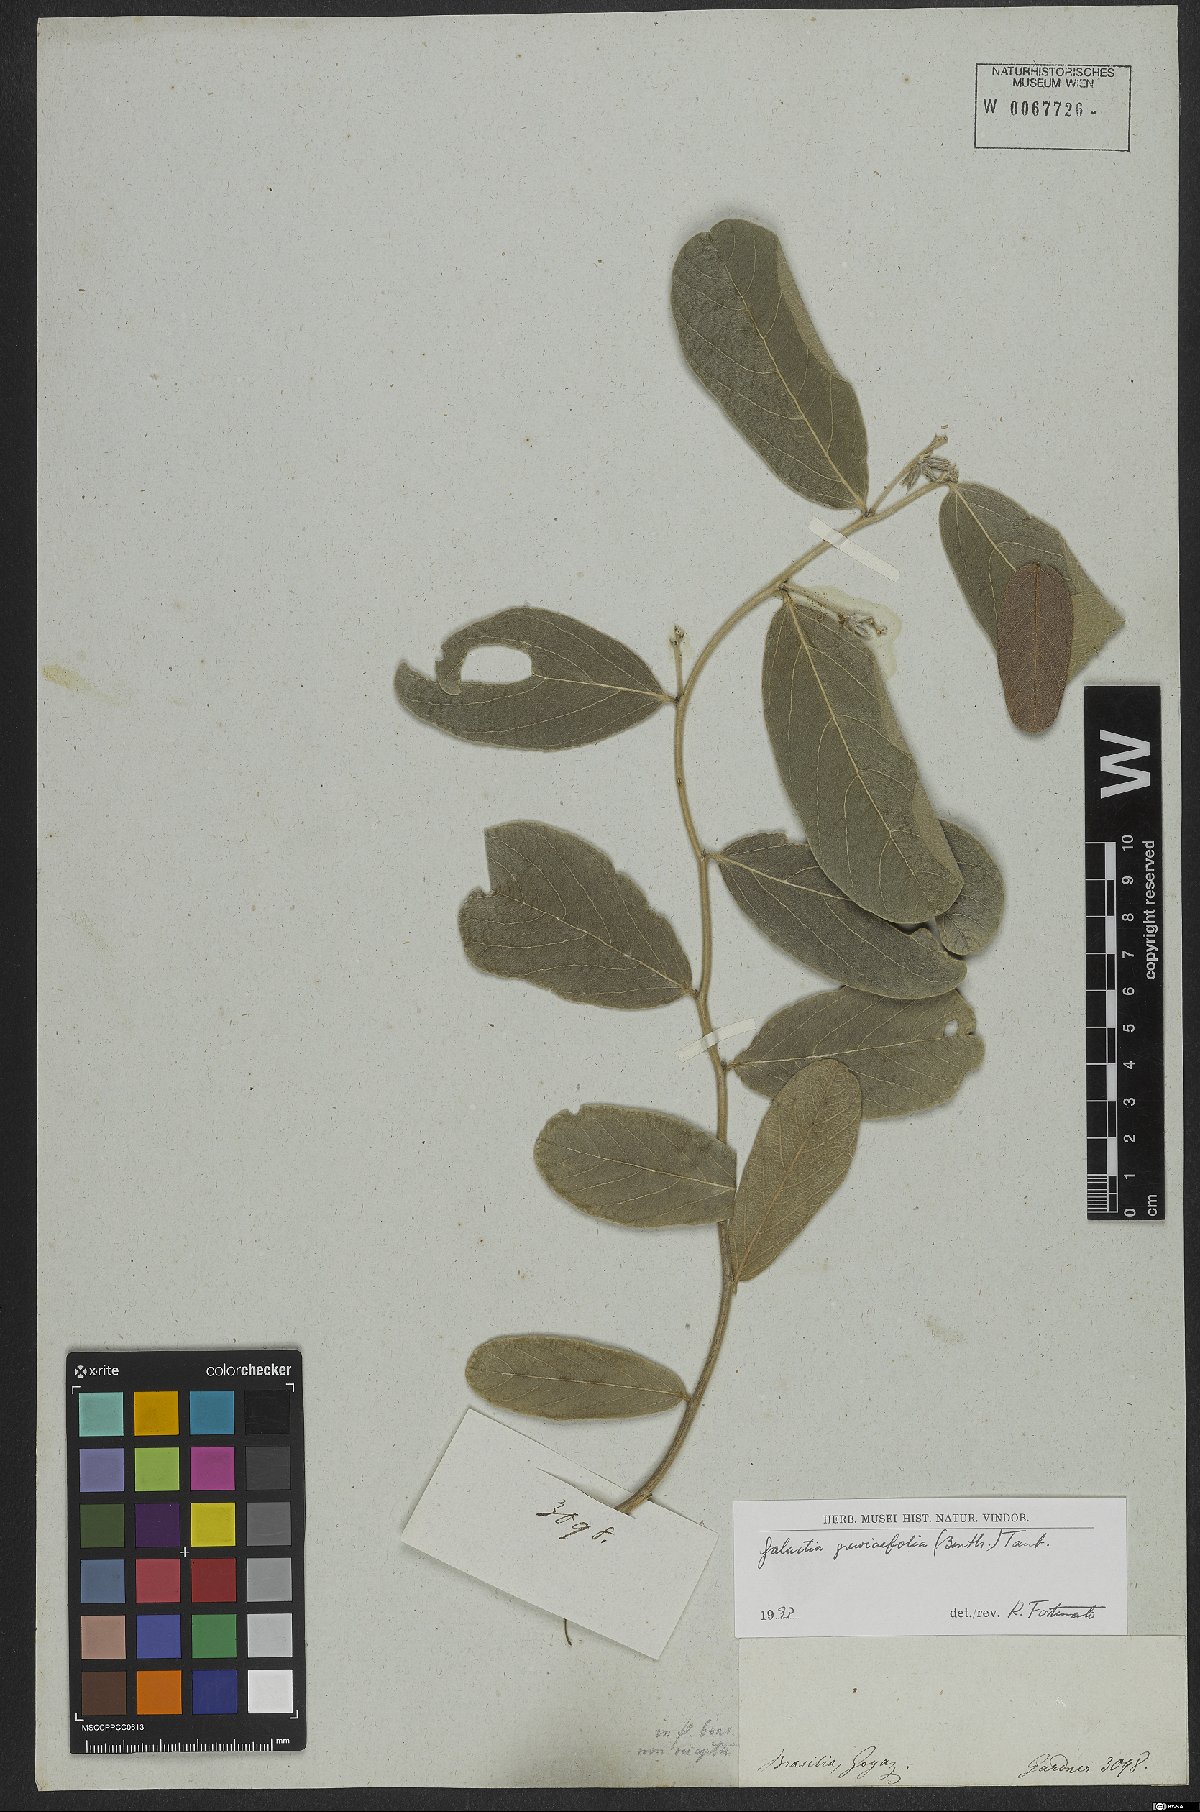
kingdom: Plantae
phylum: Tracheophyta
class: Magnoliopsida
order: Fabales
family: Fabaceae
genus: Cerradicola
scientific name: Cerradicola grewiifolia
